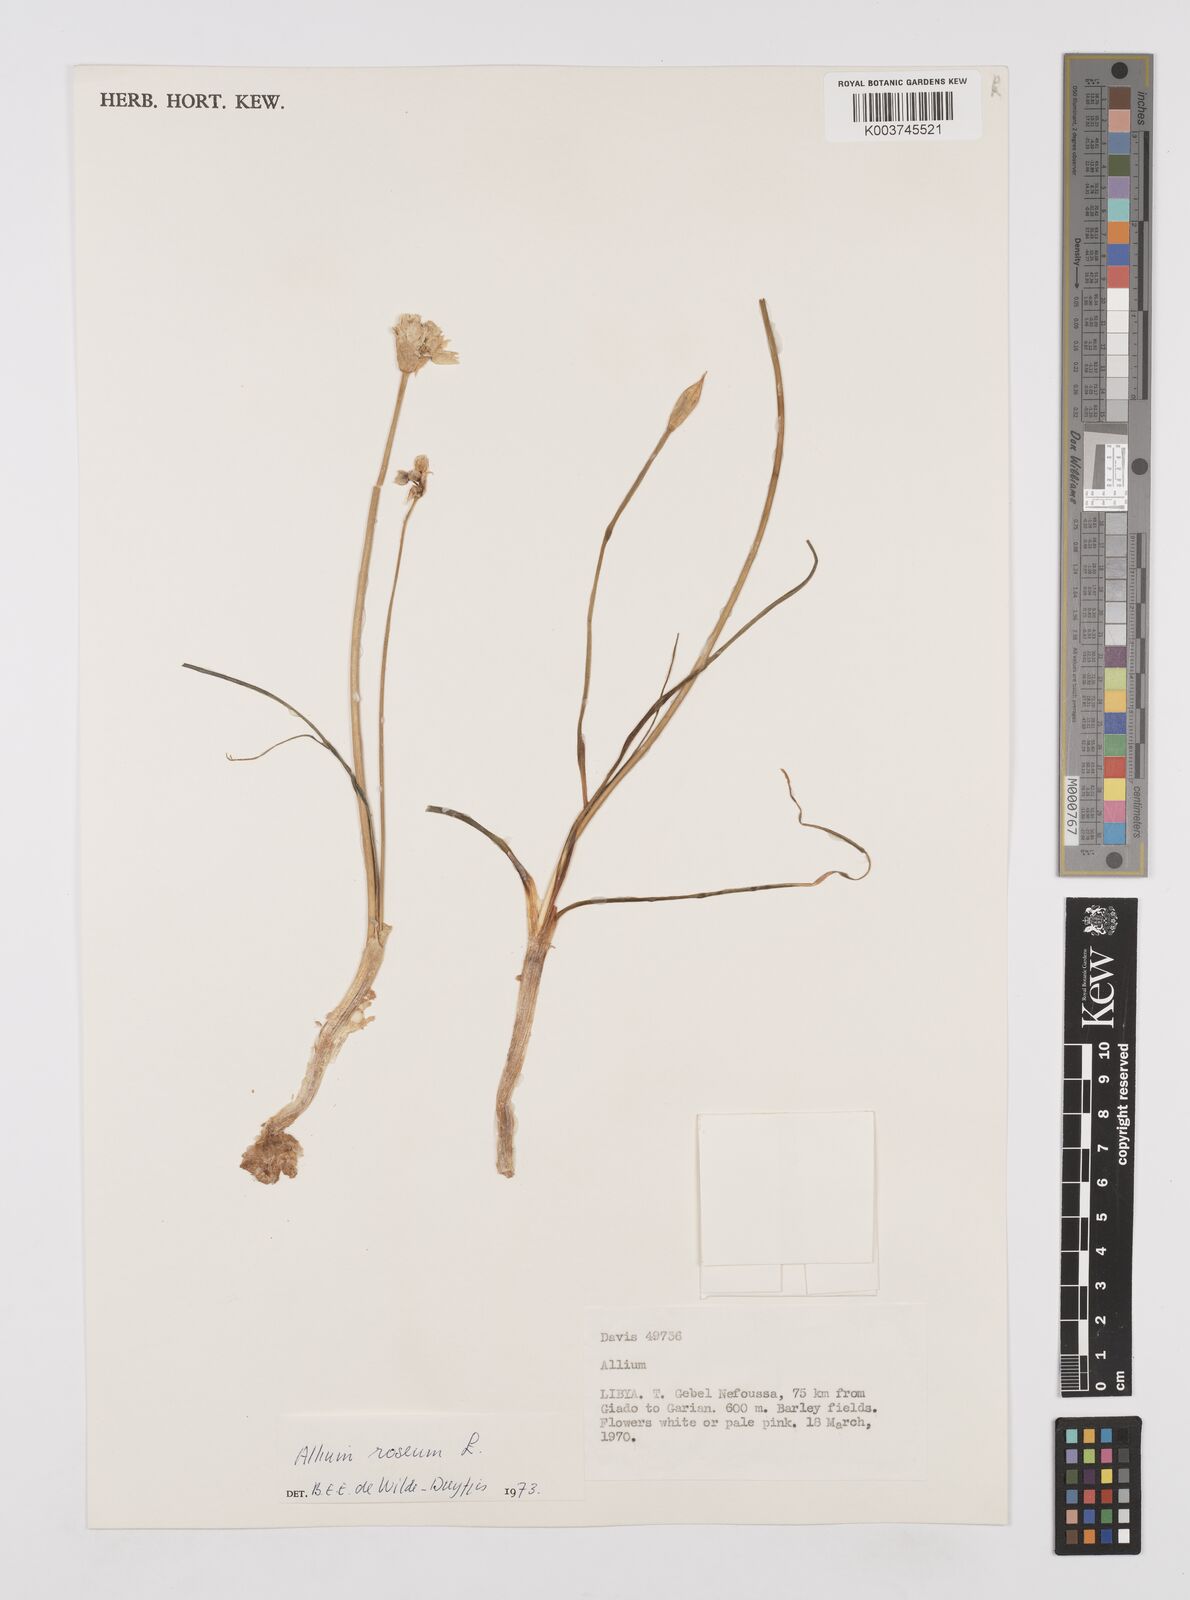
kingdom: Plantae
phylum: Tracheophyta
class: Liliopsida
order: Asparagales
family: Amaryllidaceae
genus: Allium
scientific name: Allium roseum
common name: Rosy garlic
